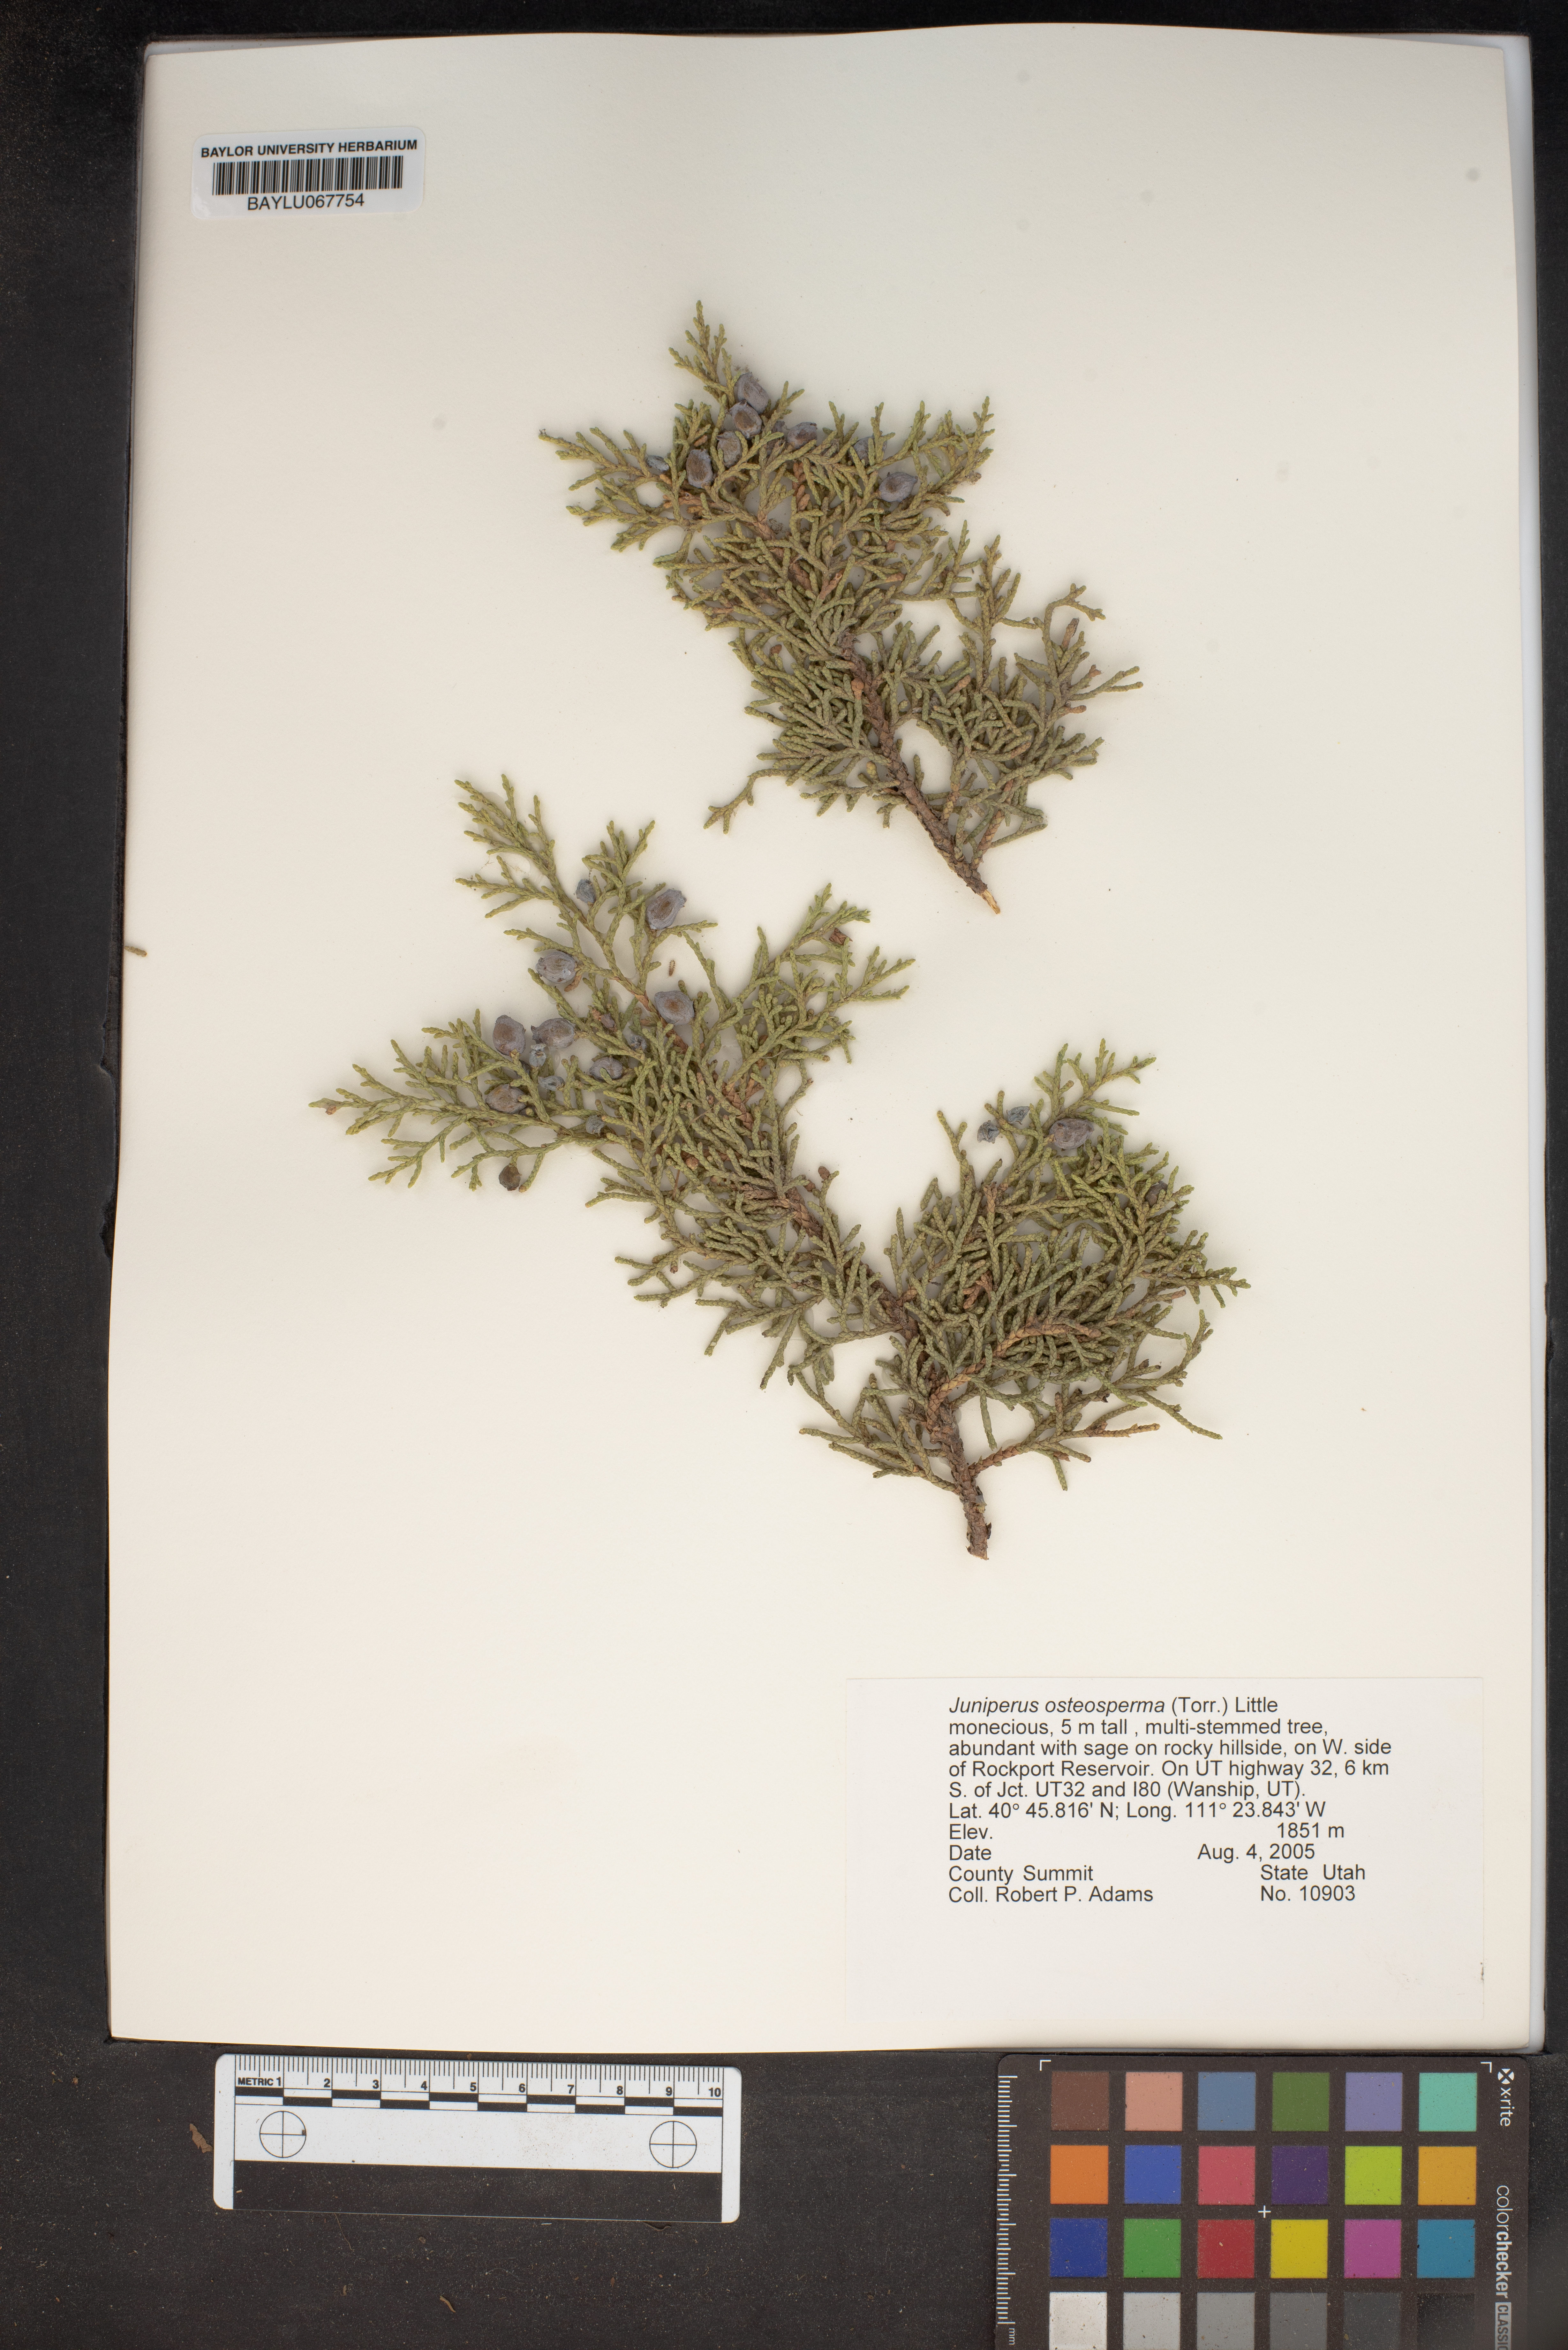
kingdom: Plantae
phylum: Tracheophyta
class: Pinopsida
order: Pinales
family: Cupressaceae
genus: Juniperus
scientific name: Juniperus osteosperma
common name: Utah juniper
